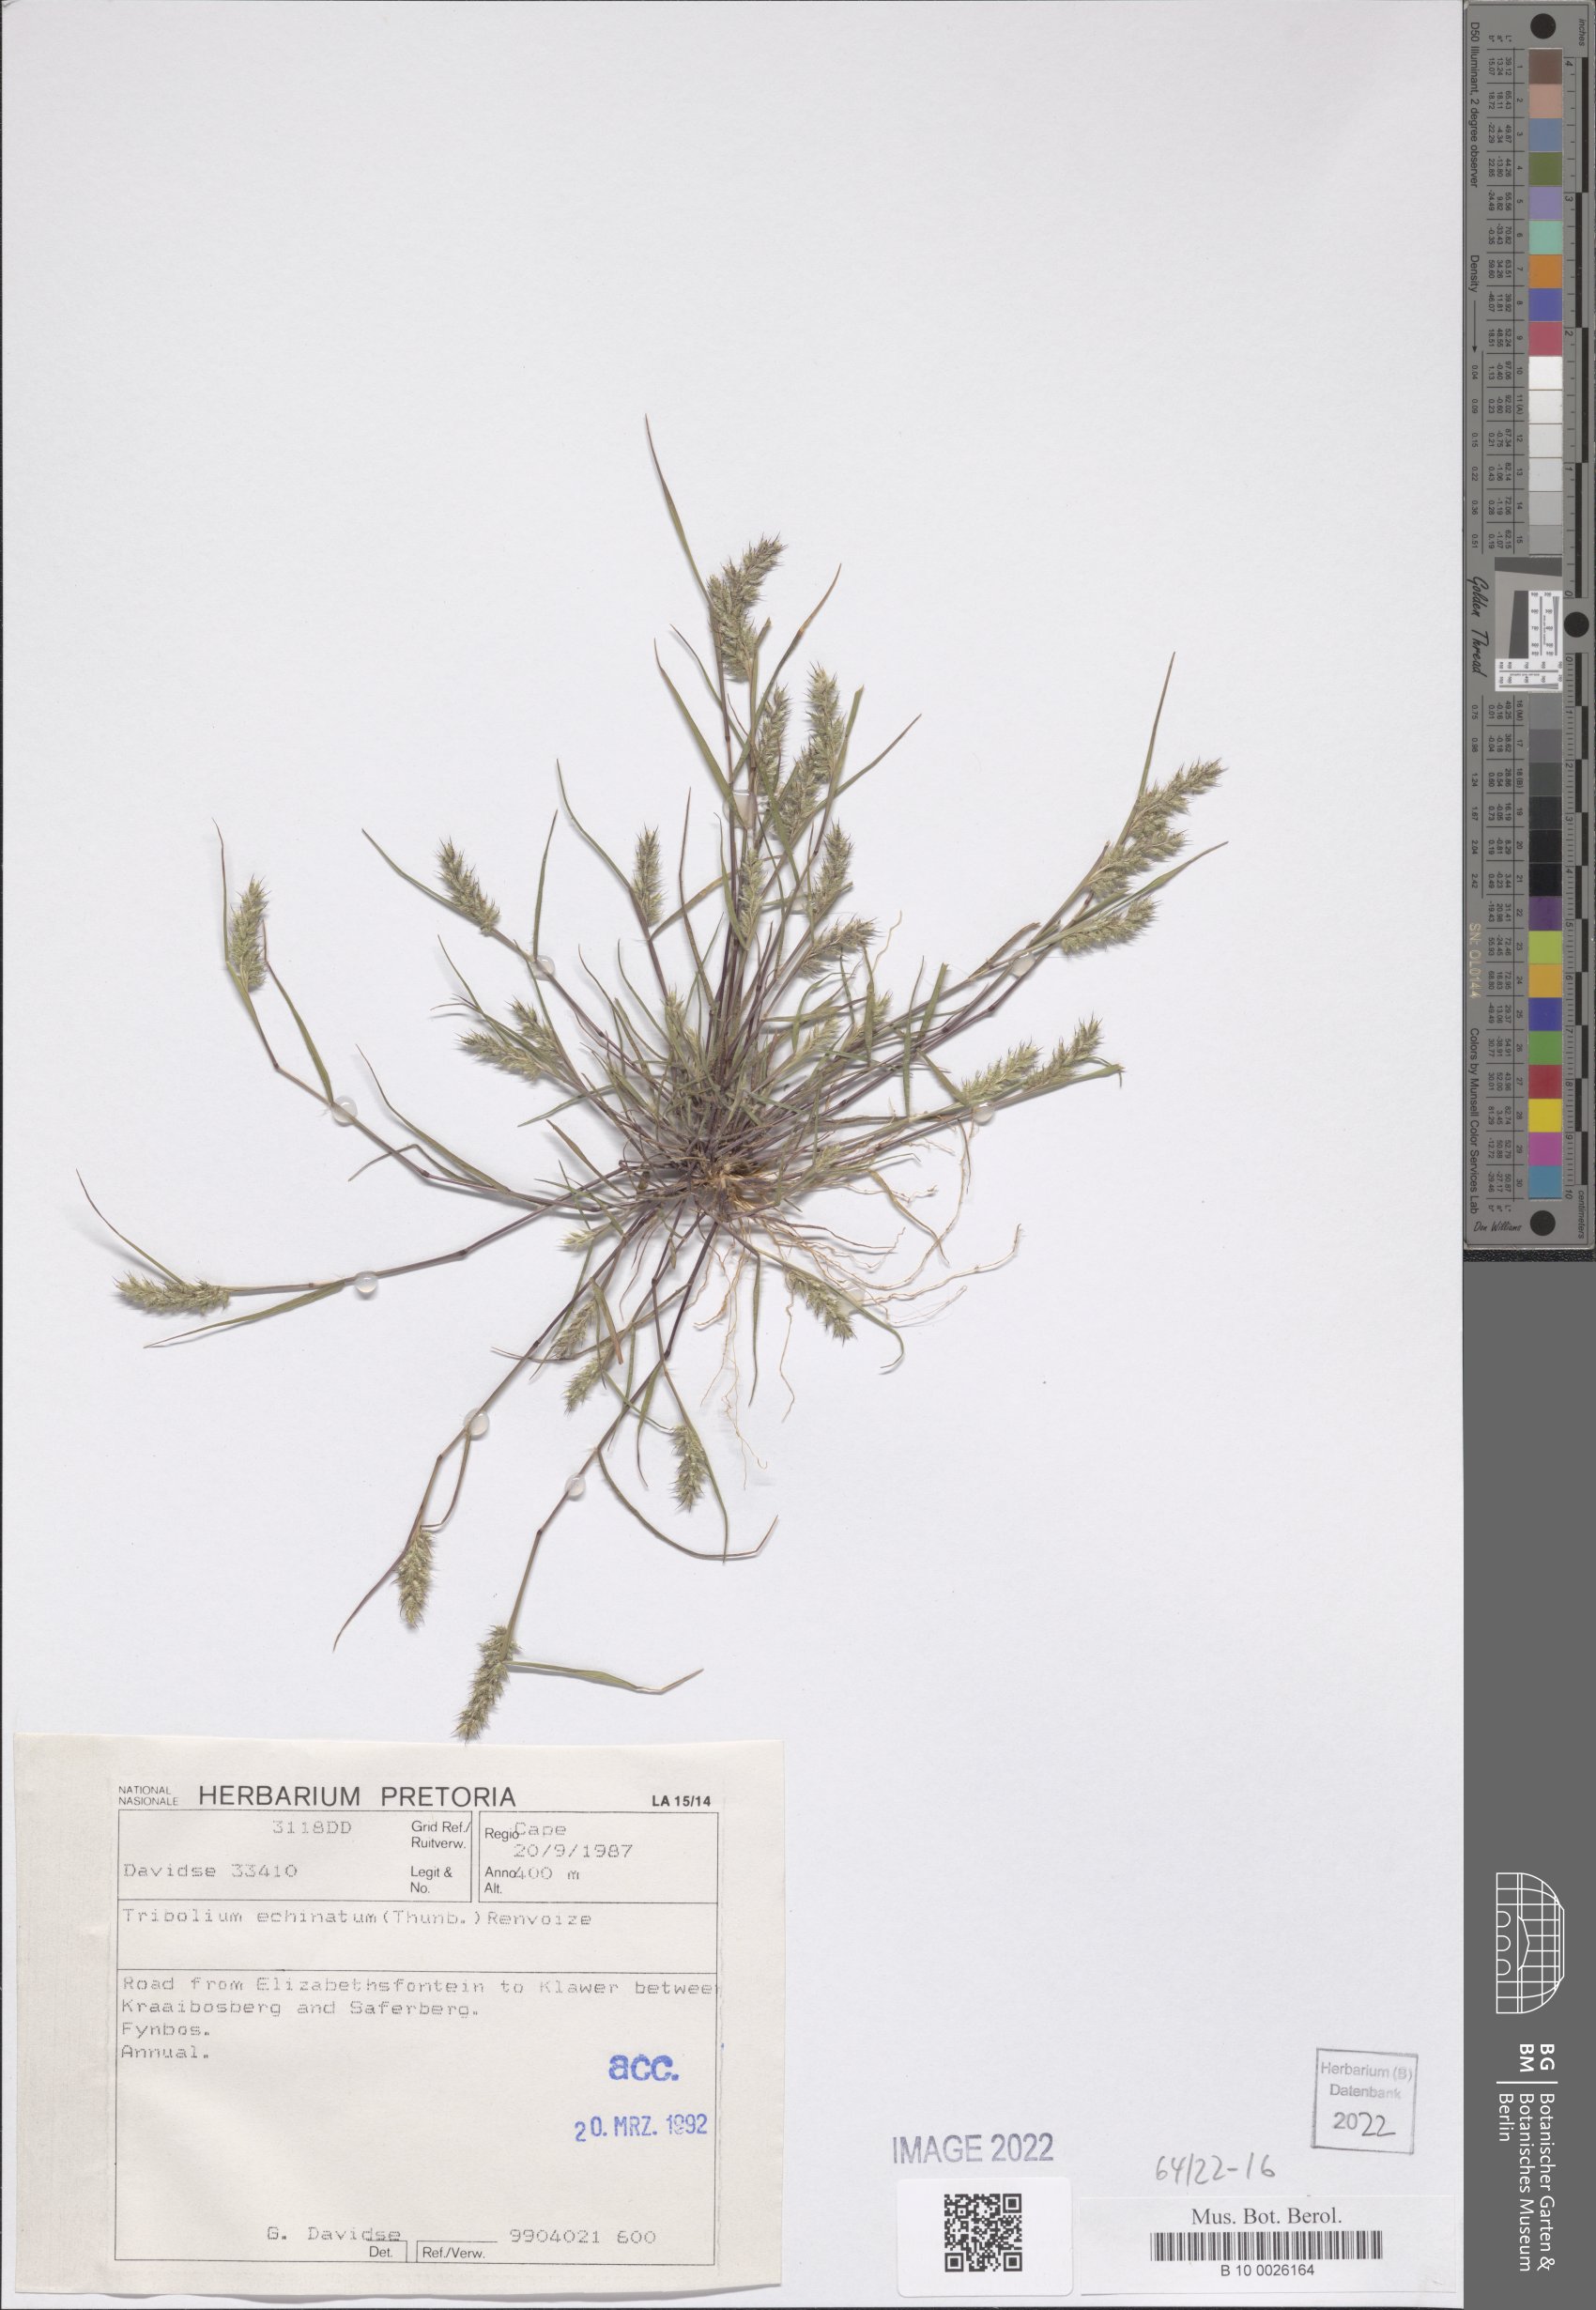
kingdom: Plantae
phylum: Tracheophyta
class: Liliopsida
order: Poales
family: Poaceae
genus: Tribolium
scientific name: Tribolium echinatum
